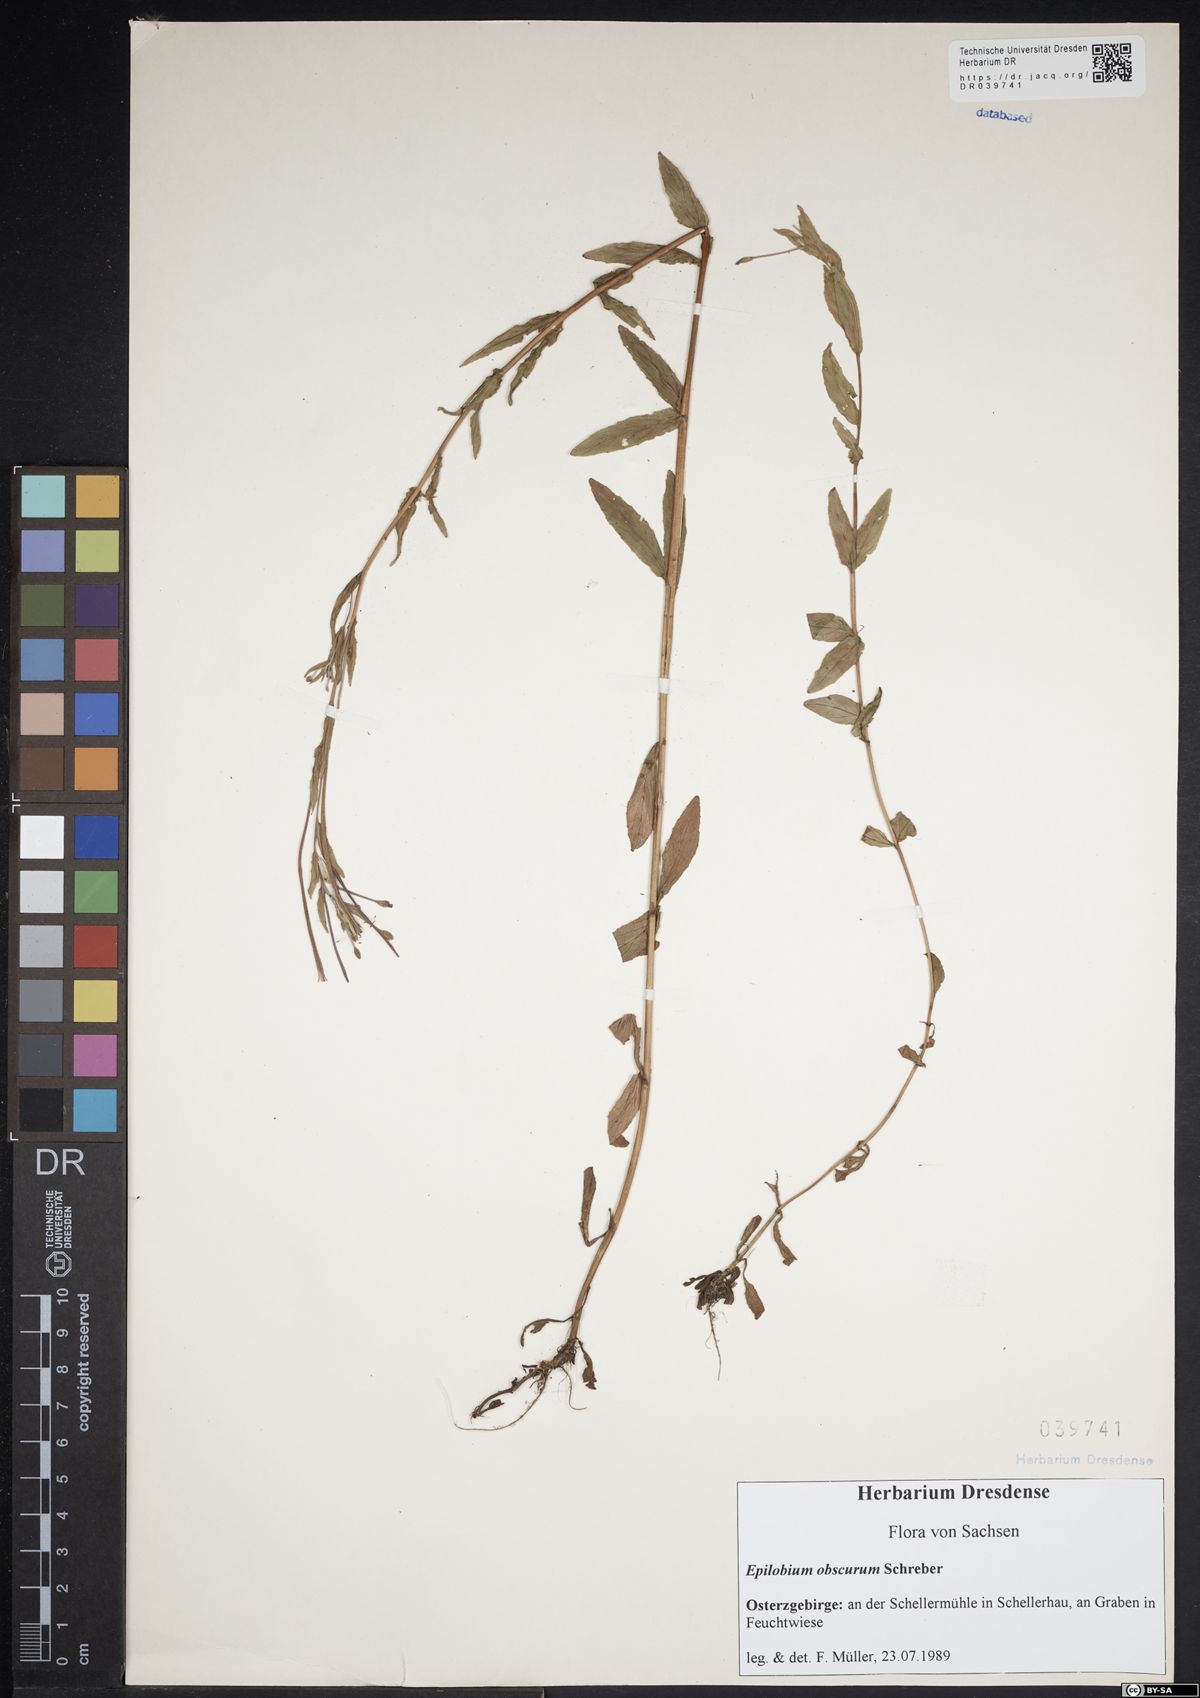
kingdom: Plantae
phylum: Tracheophyta
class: Magnoliopsida
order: Myrtales
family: Onagraceae
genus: Epilobium
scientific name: Epilobium obscurum
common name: Short-fruited willowherb
